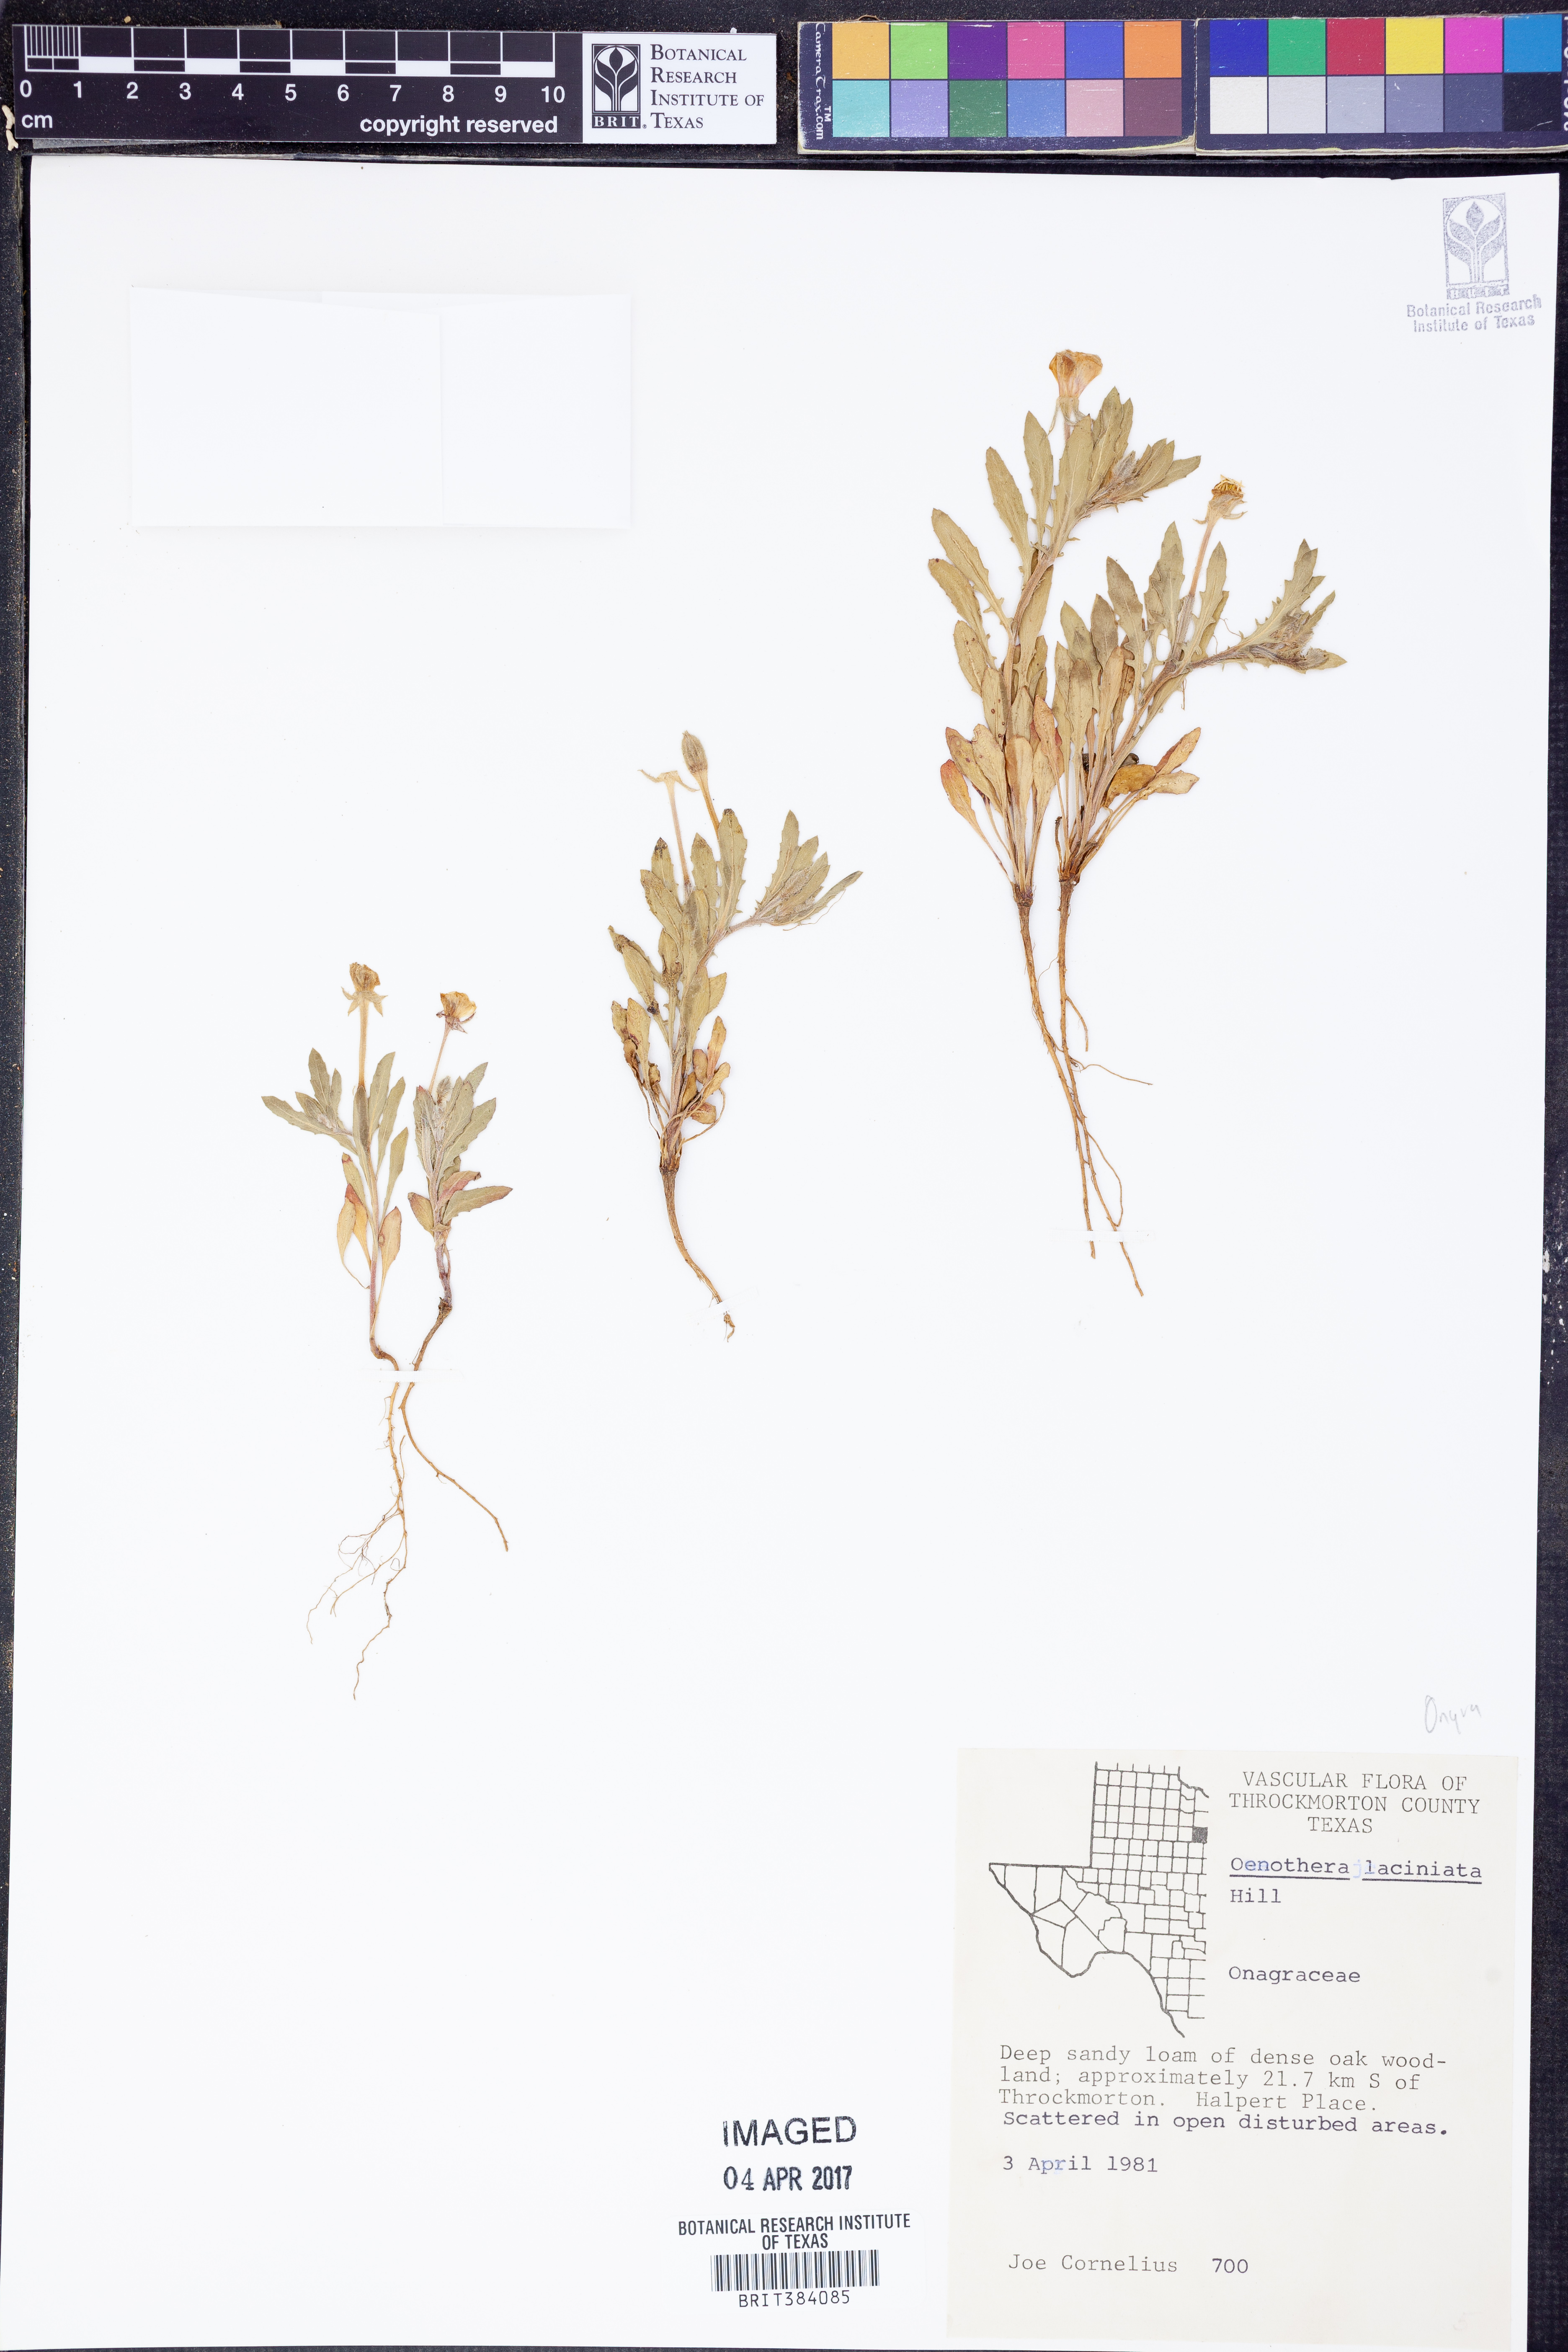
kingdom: Plantae
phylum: Tracheophyta
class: Magnoliopsida
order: Myrtales
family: Onagraceae
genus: Oenothera
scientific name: Oenothera laciniata
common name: Cut-leaved evening-primrose
